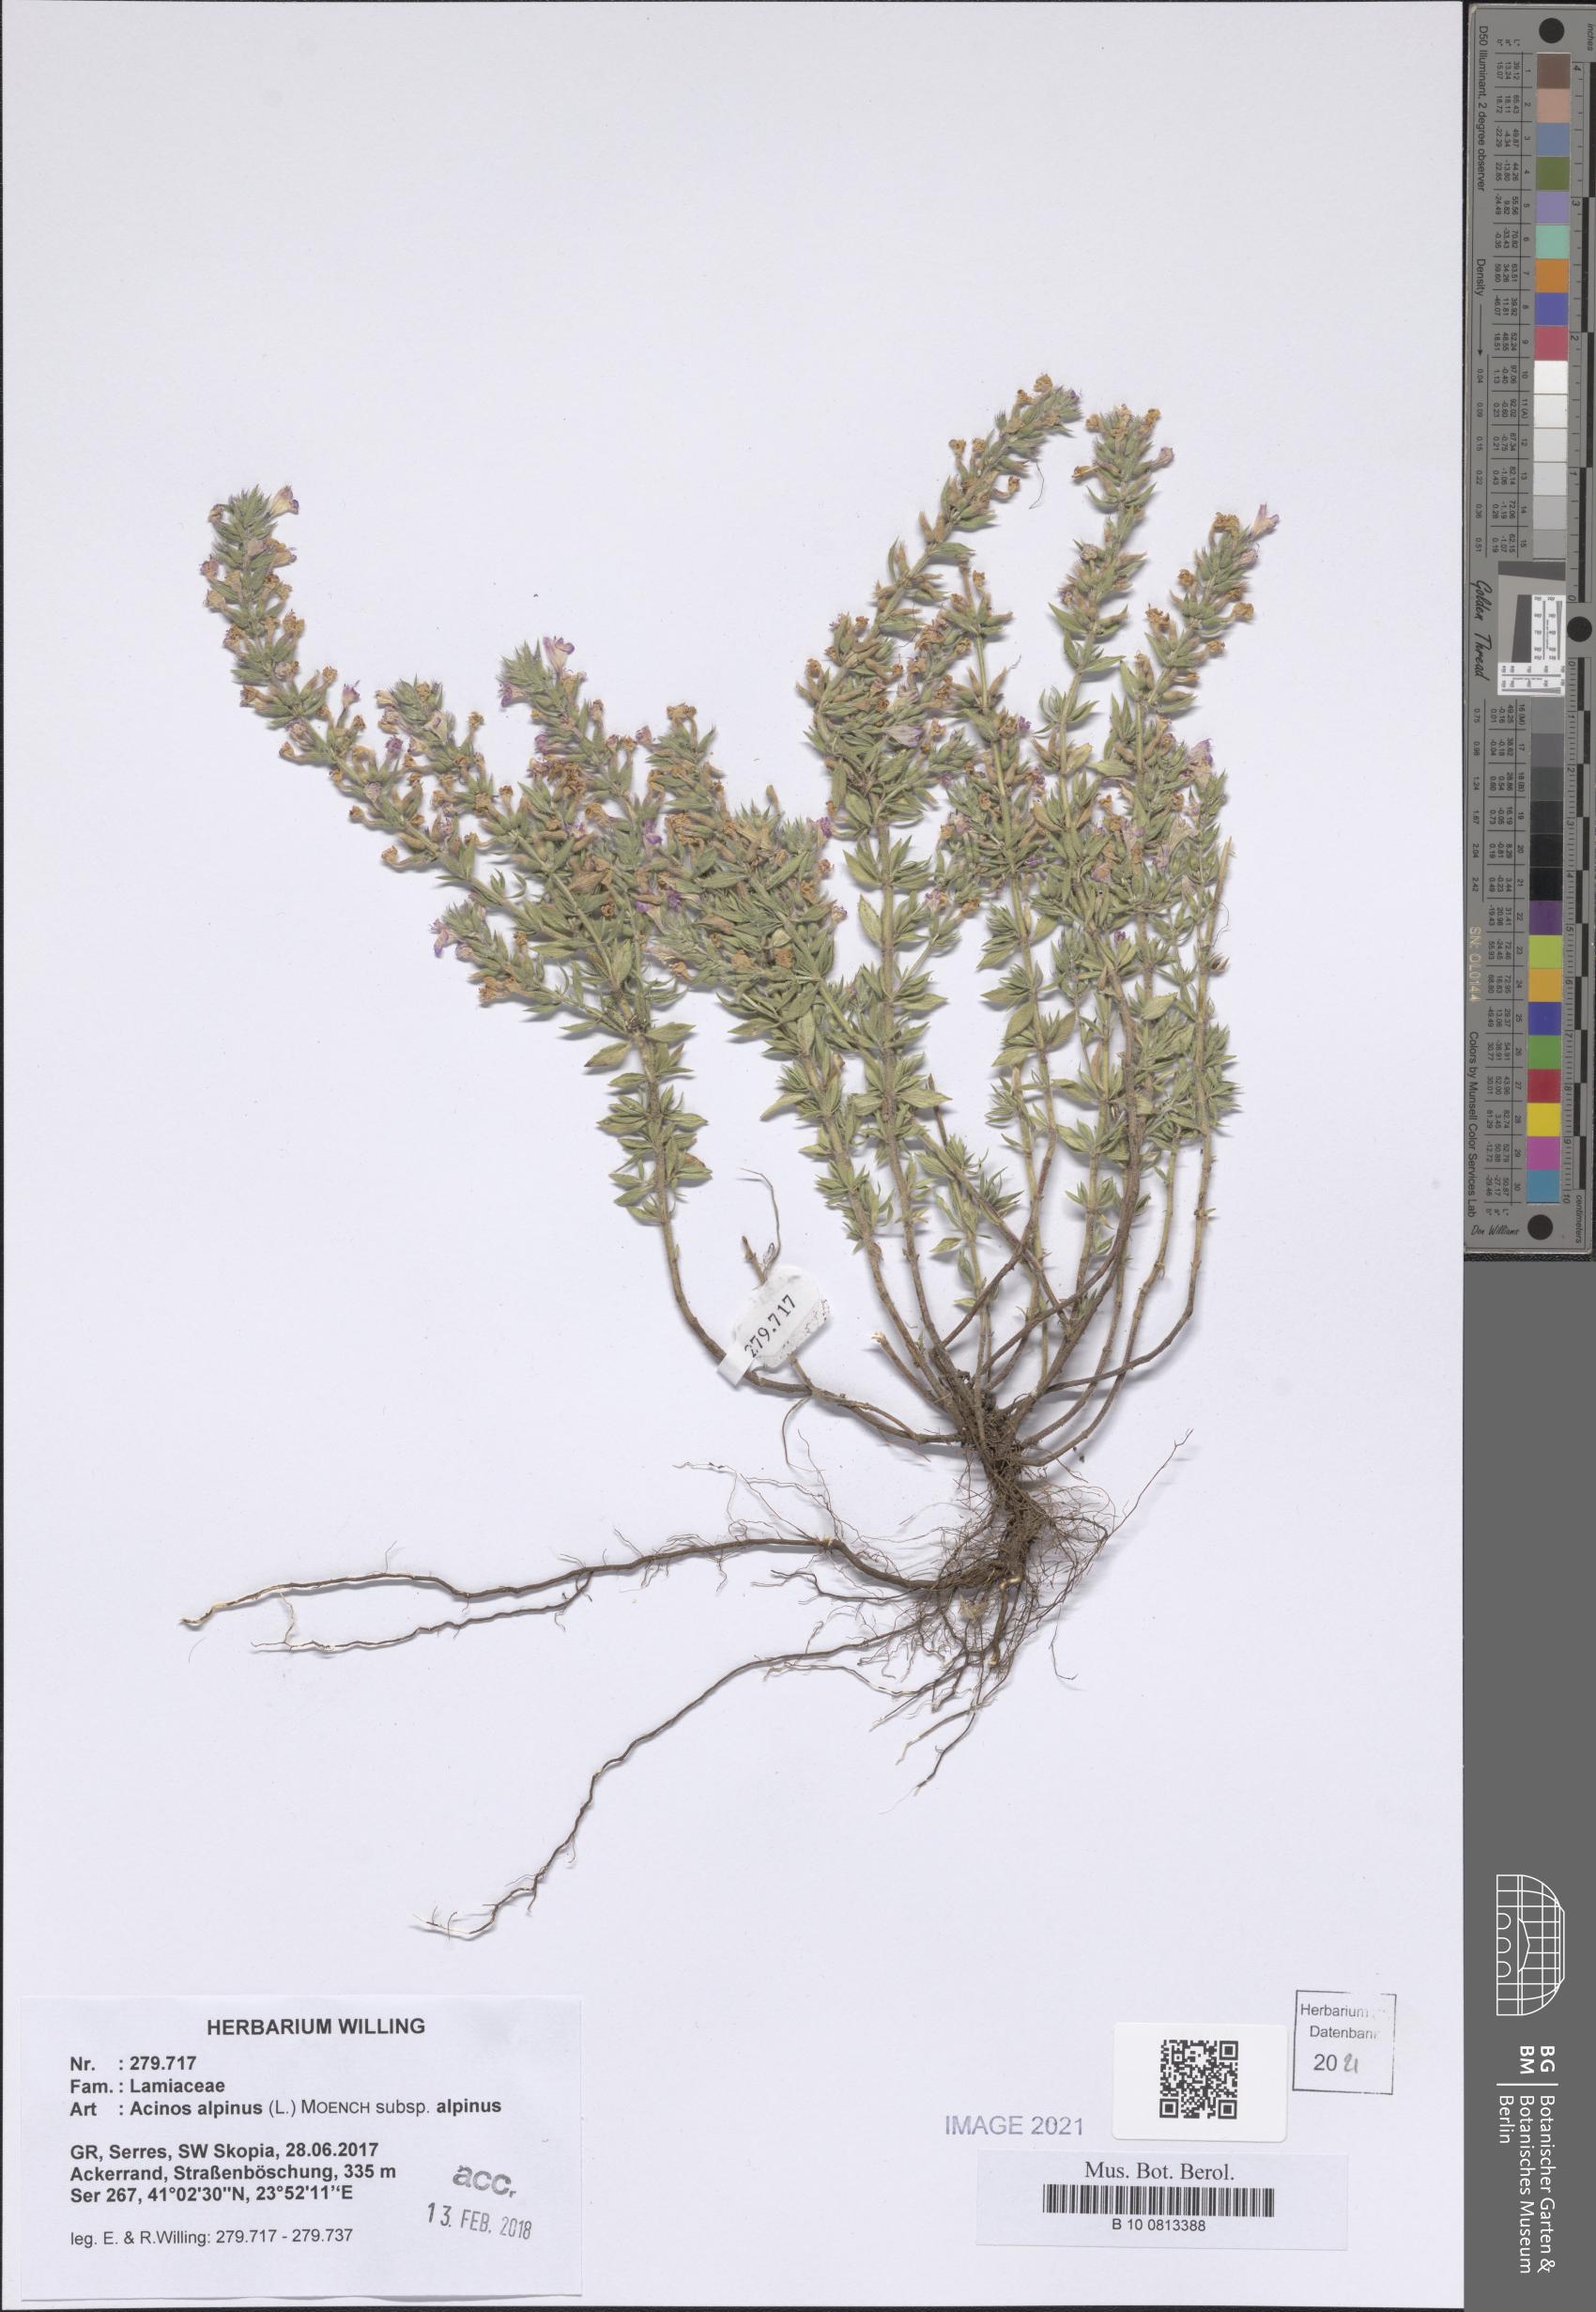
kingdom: Plantae
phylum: Tracheophyta
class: Magnoliopsida
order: Lamiales
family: Lamiaceae
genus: Clinopodium
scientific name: Clinopodium alpinum
